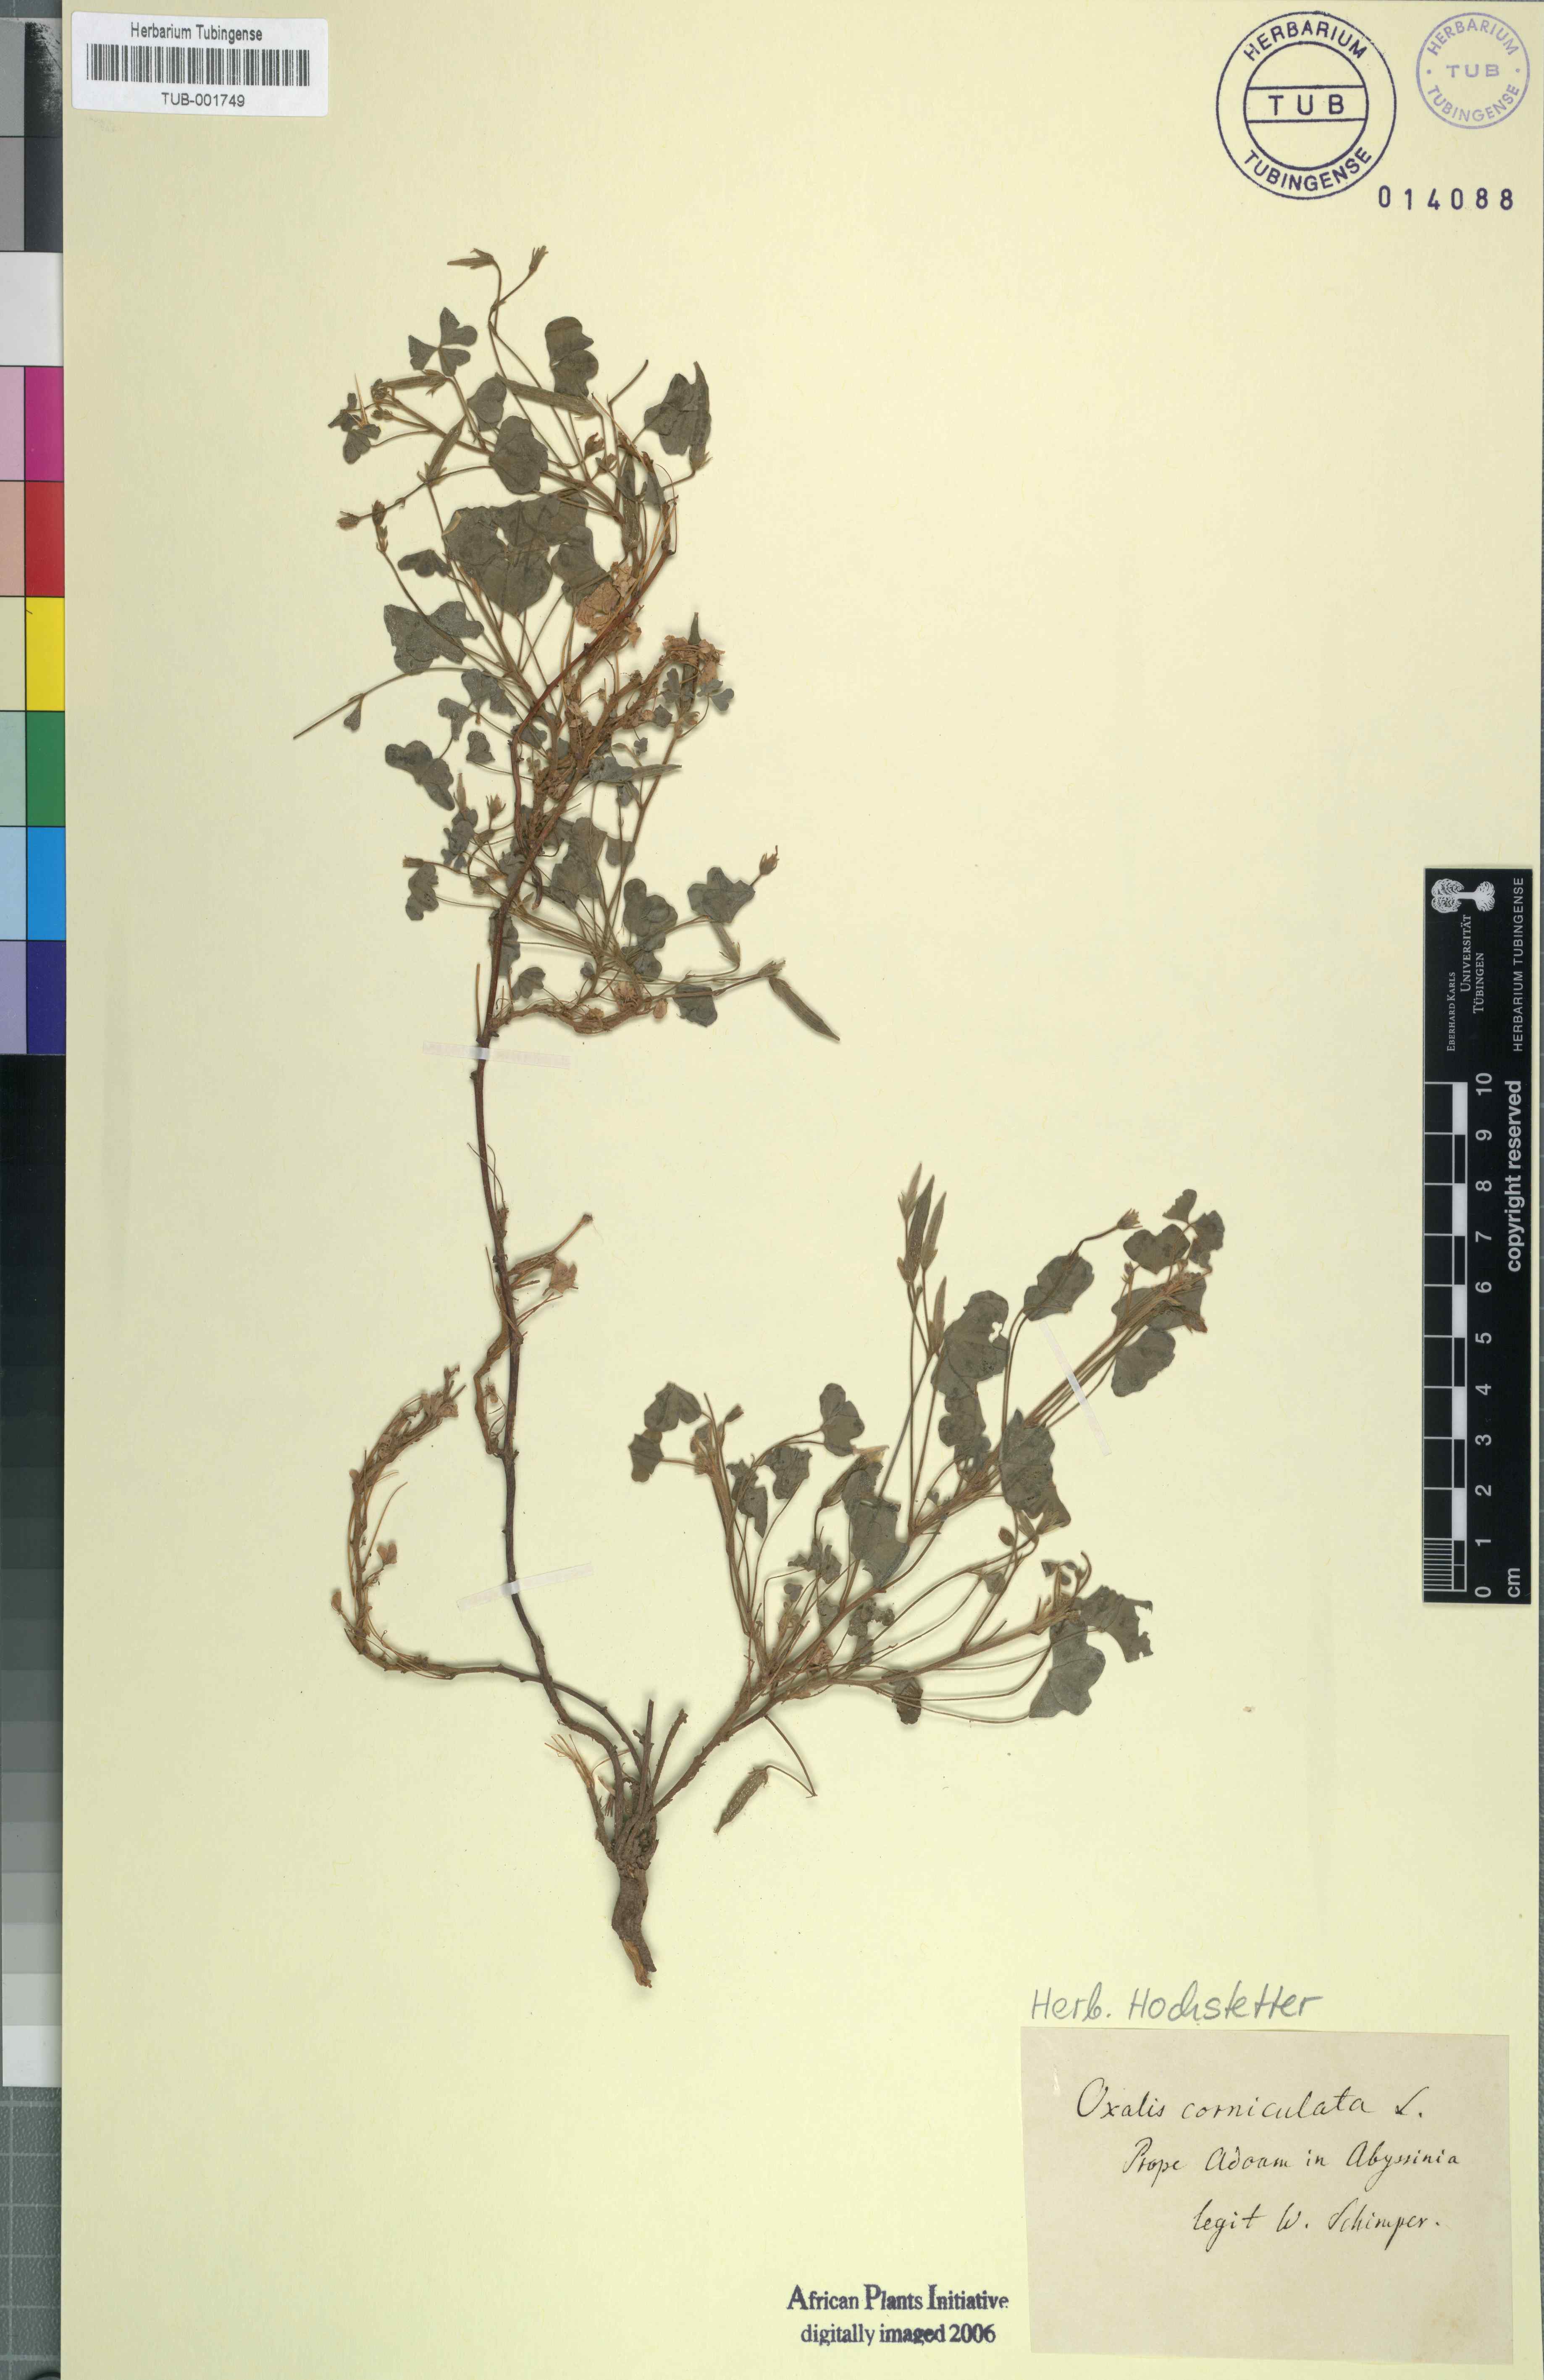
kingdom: Plantae
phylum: Tracheophyta
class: Magnoliopsida
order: Oxalidales
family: Oxalidaceae
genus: Oxalis
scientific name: Oxalis corniculata
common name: Procumbent yellow-sorrel
